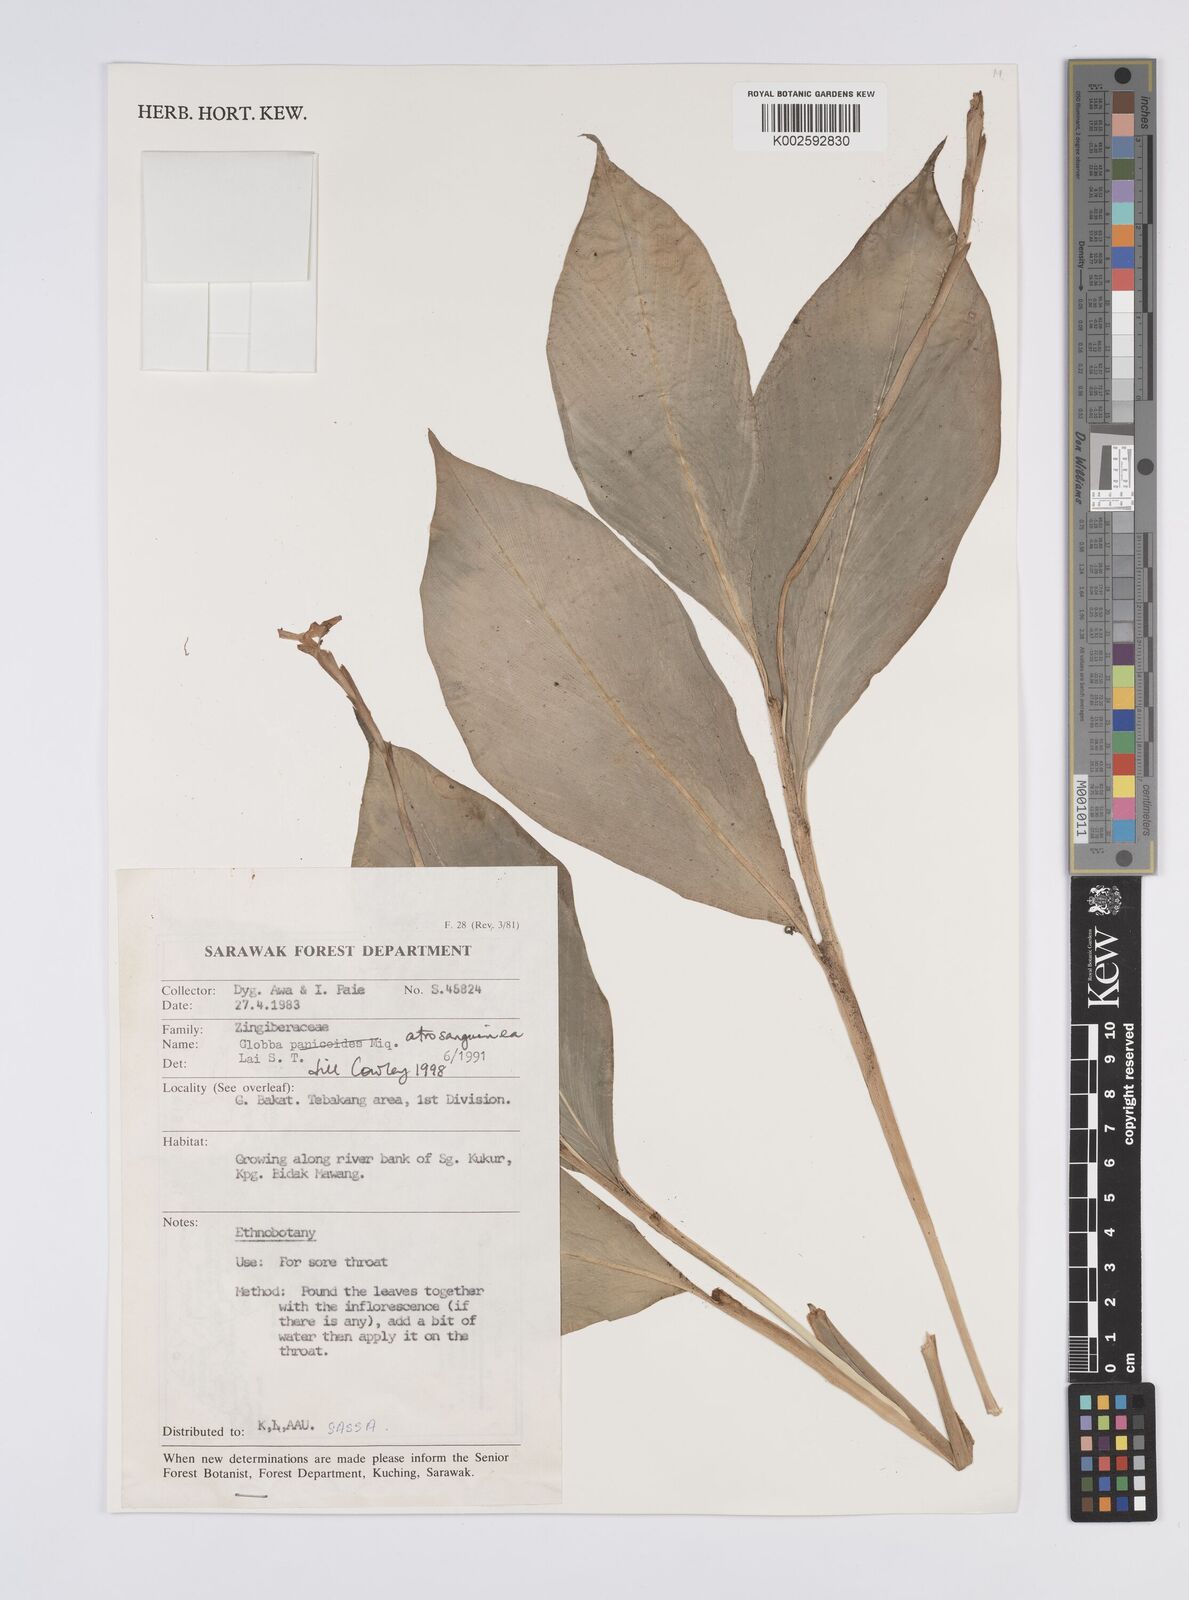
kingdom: Plantae
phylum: Tracheophyta
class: Liliopsida
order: Zingiberales
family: Zingiberaceae
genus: Globba
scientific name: Globba atrosanguinea
